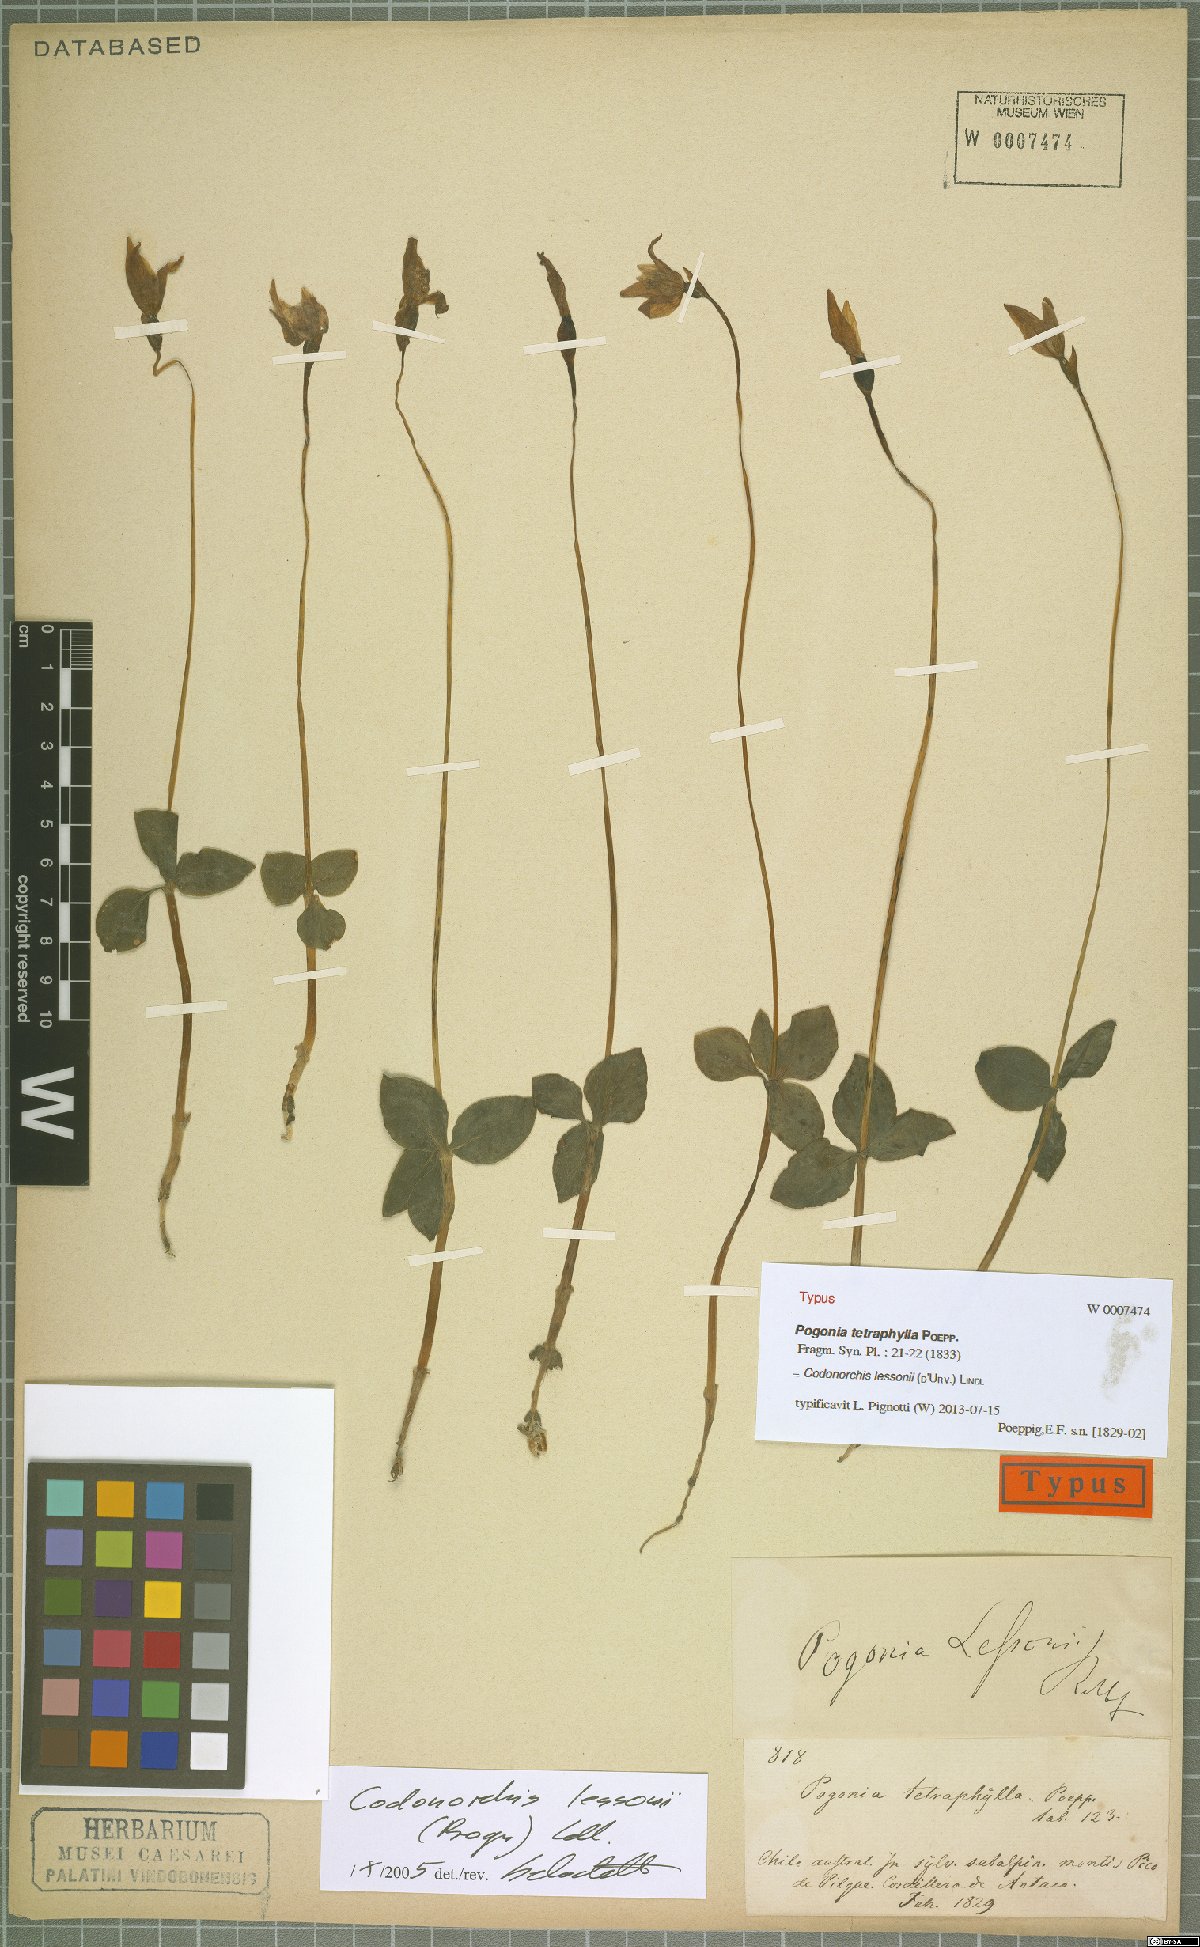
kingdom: Plantae
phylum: Tracheophyta
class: Liliopsida
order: Asparagales
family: Orchidaceae
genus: Codonorchis
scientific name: Codonorchis lessonii
